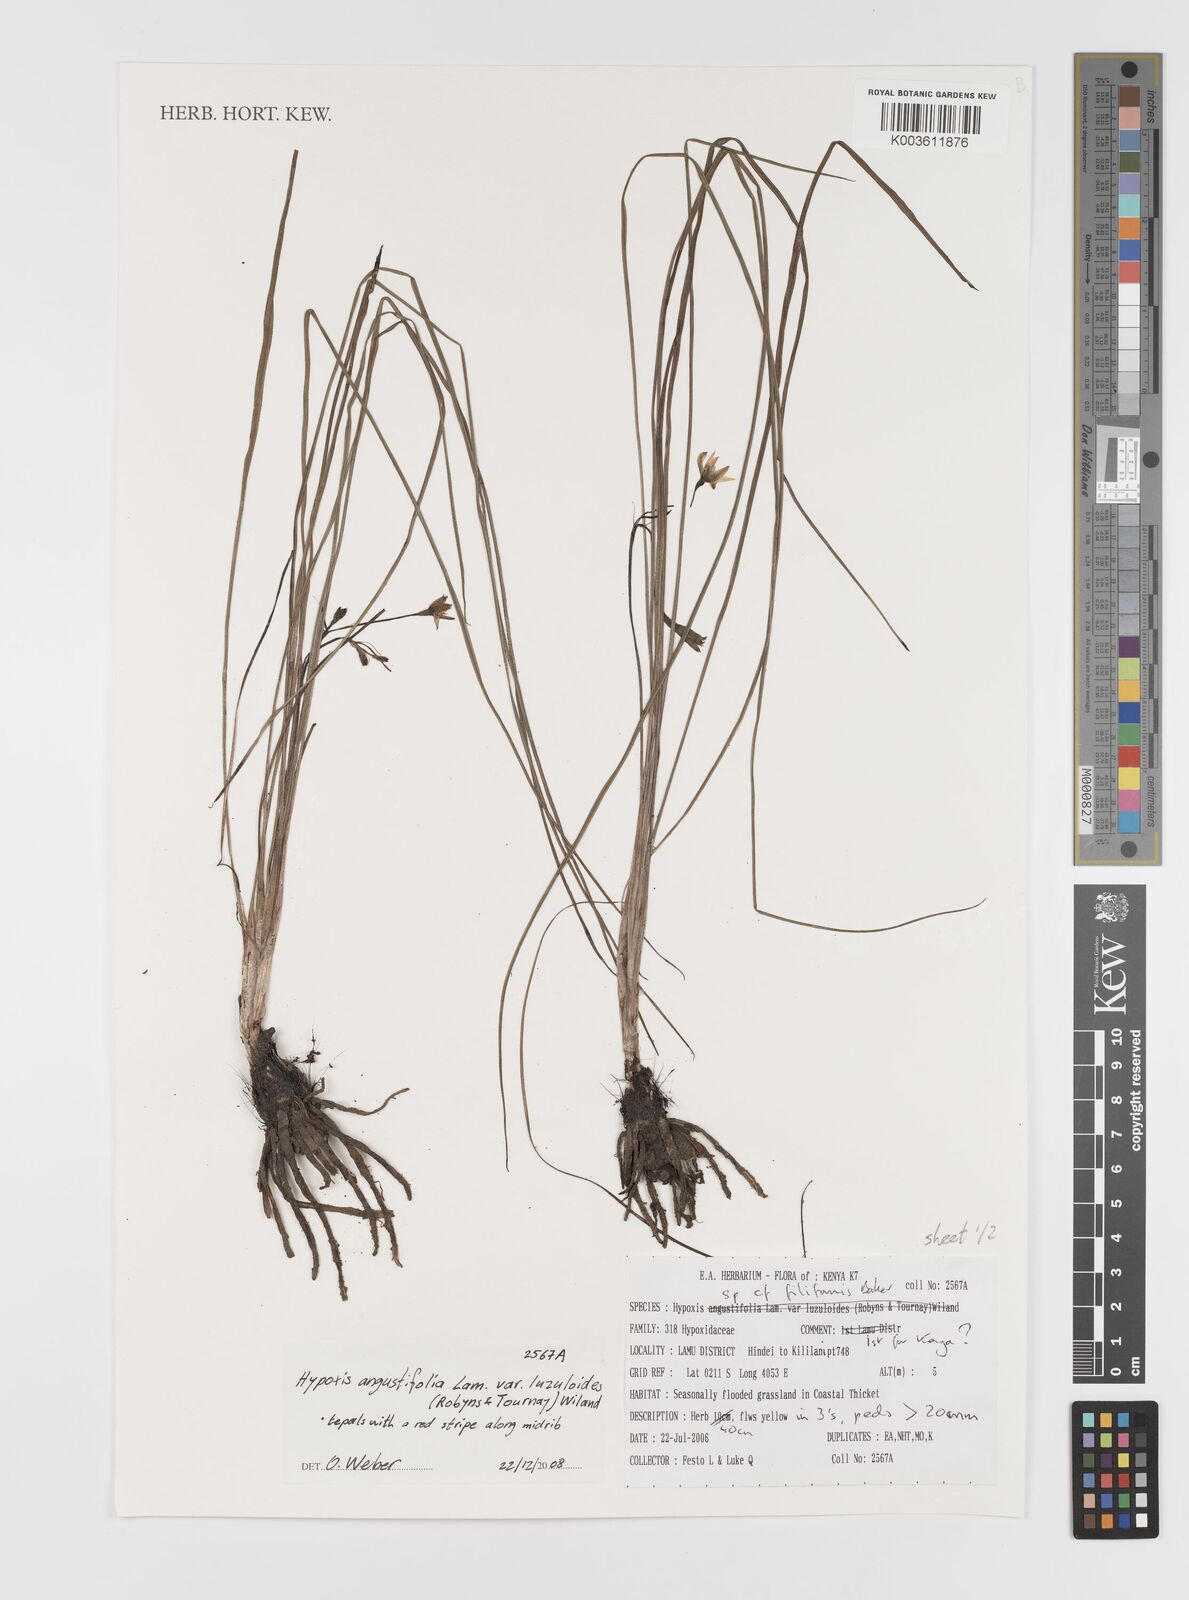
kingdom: Plantae
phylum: Tracheophyta
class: Liliopsida
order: Asparagales
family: Hypoxidaceae
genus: Hypoxis
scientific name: Hypoxis angustifolia
